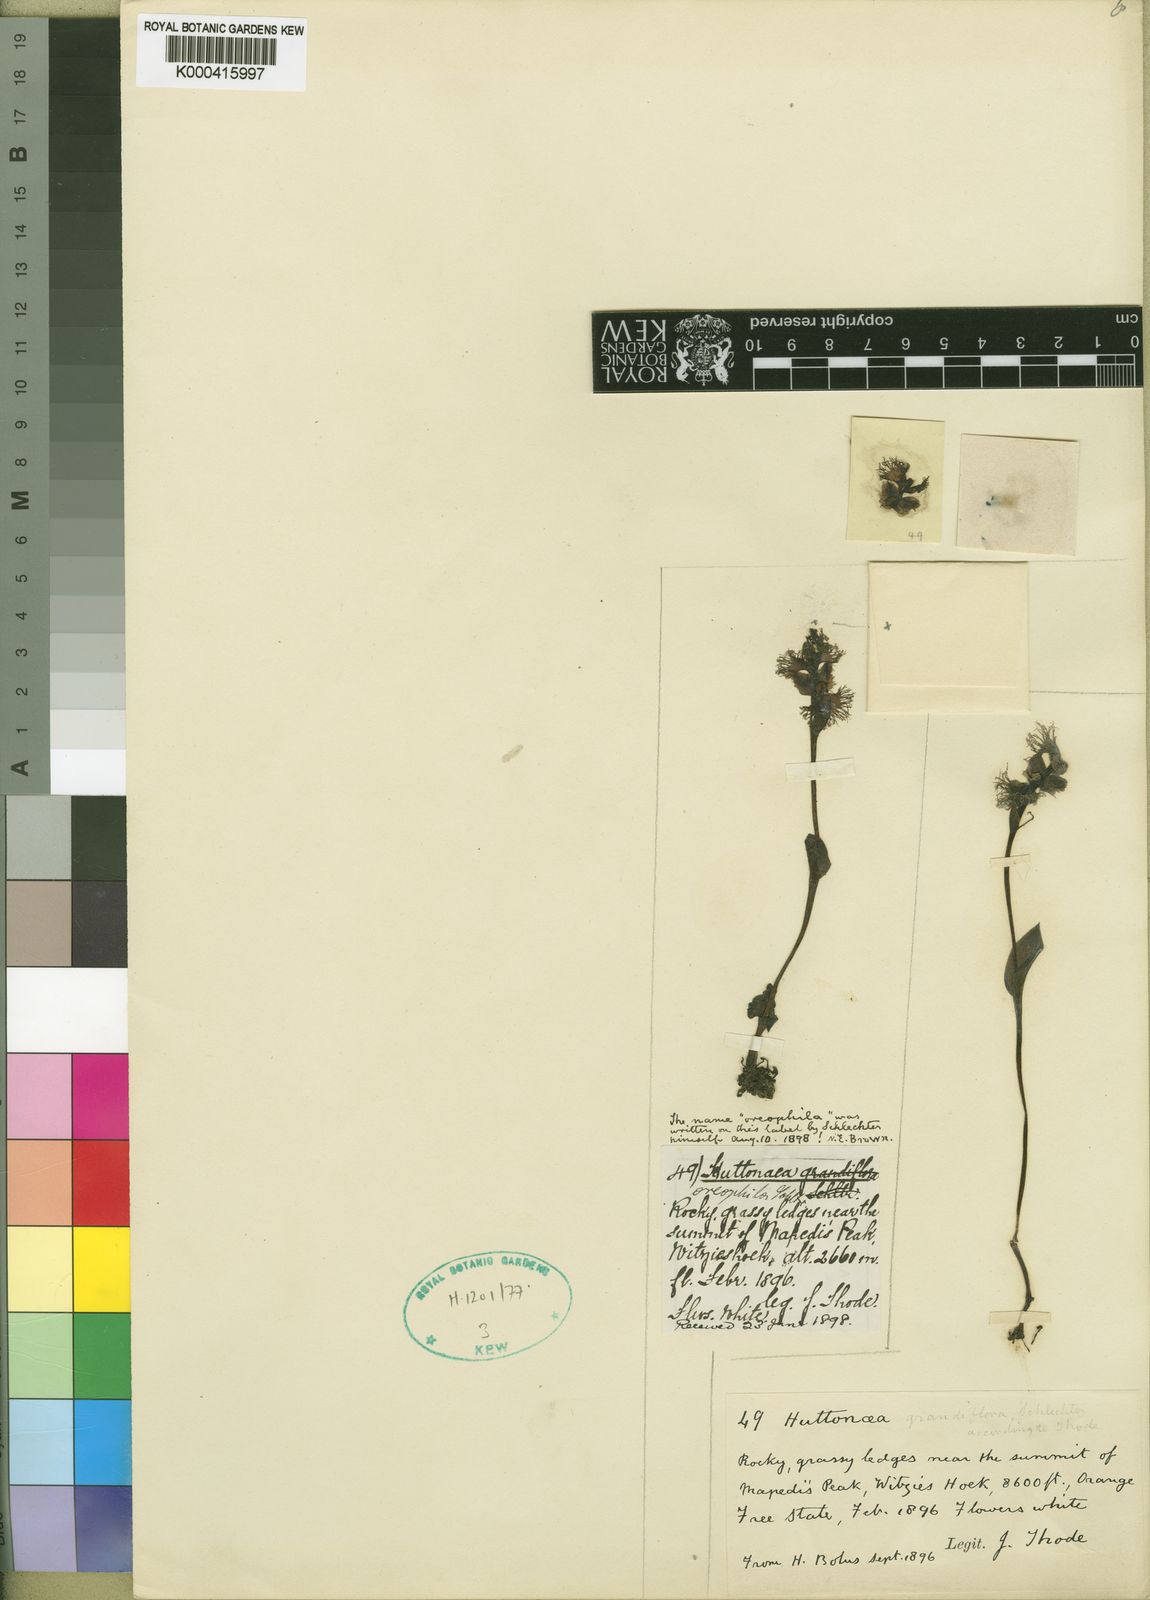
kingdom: Plantae
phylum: Tracheophyta
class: Liliopsida
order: Asparagales
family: Orchidaceae
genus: Huttonaea
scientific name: Huttonaea grandiflora
